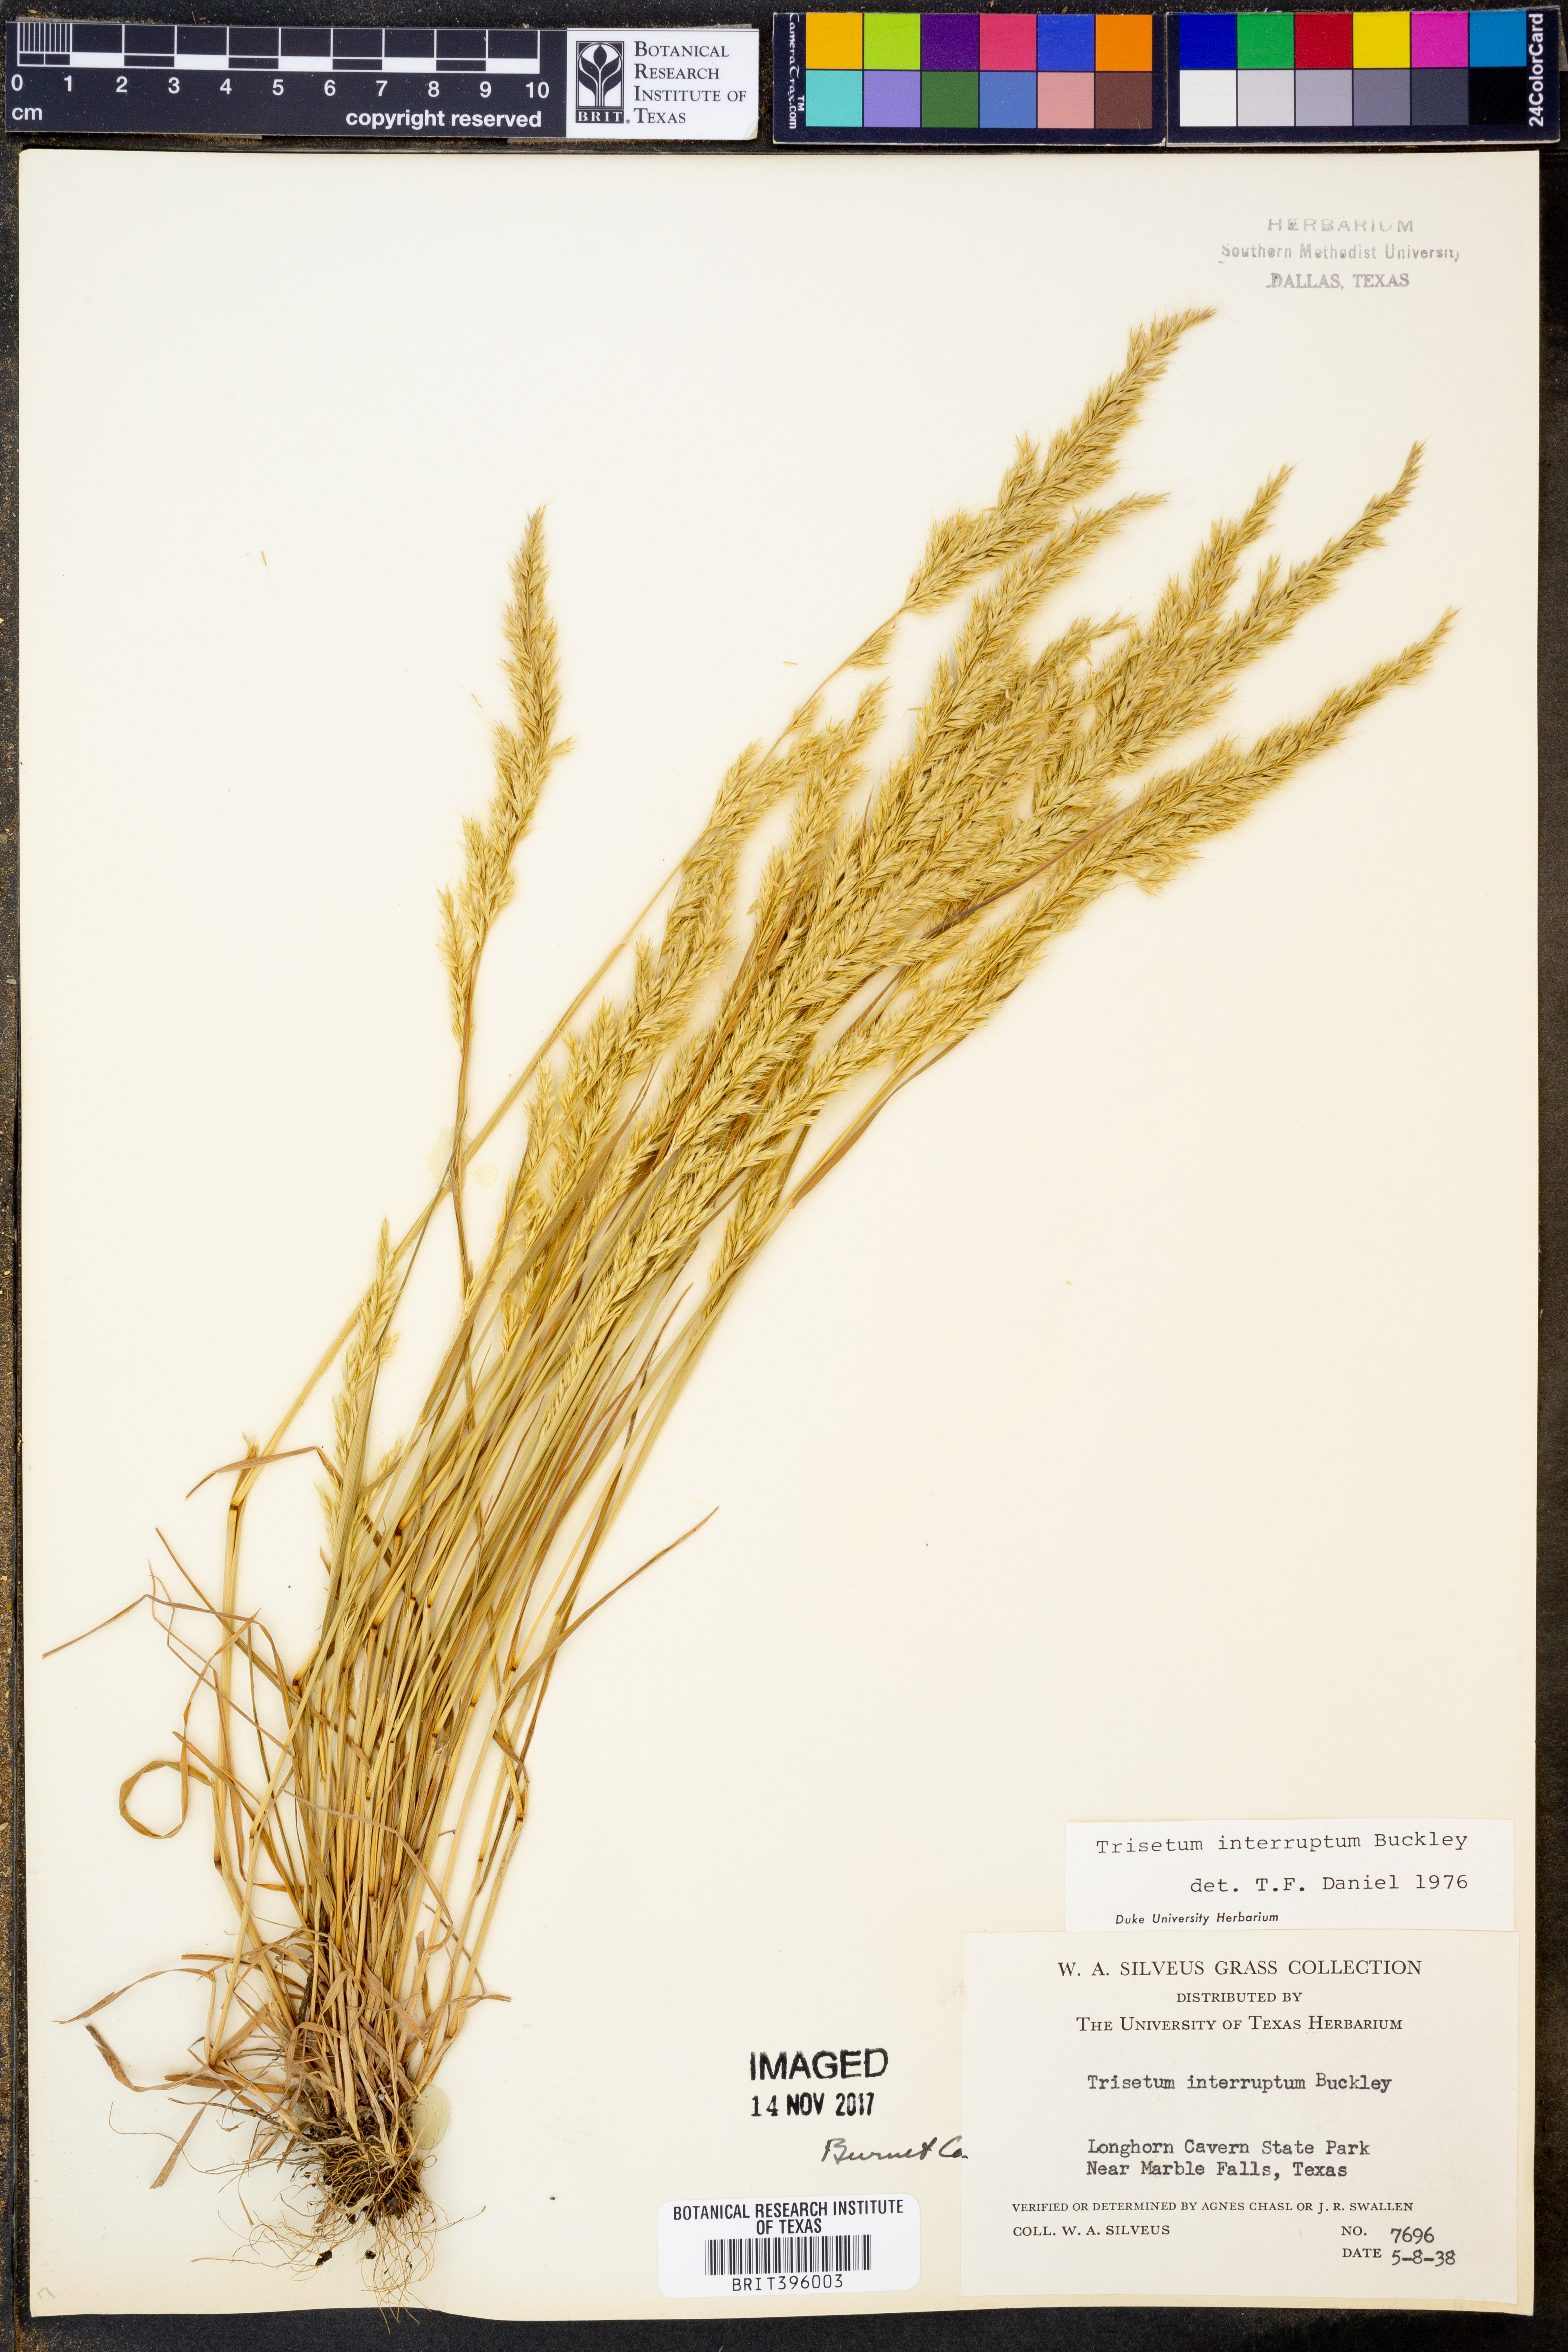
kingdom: Plantae
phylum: Tracheophyta
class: Liliopsida
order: Poales
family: Poaceae
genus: Sphenopholis
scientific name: Sphenopholis interrupta
